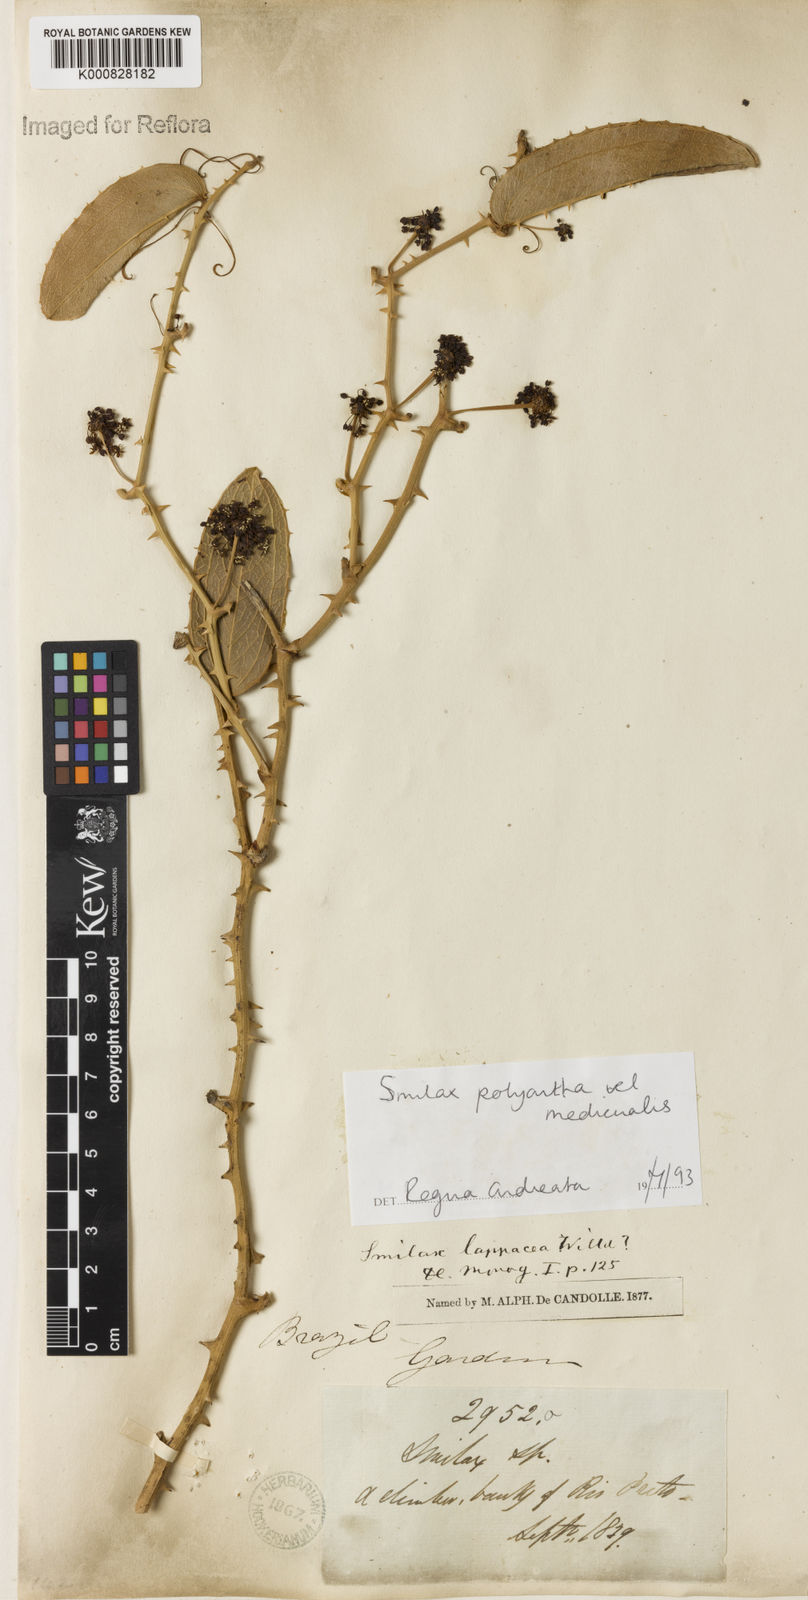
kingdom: Plantae
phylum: Tracheophyta
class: Liliopsida
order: Liliales
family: Smilacaceae
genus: Smilax
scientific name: Smilax polyantha
